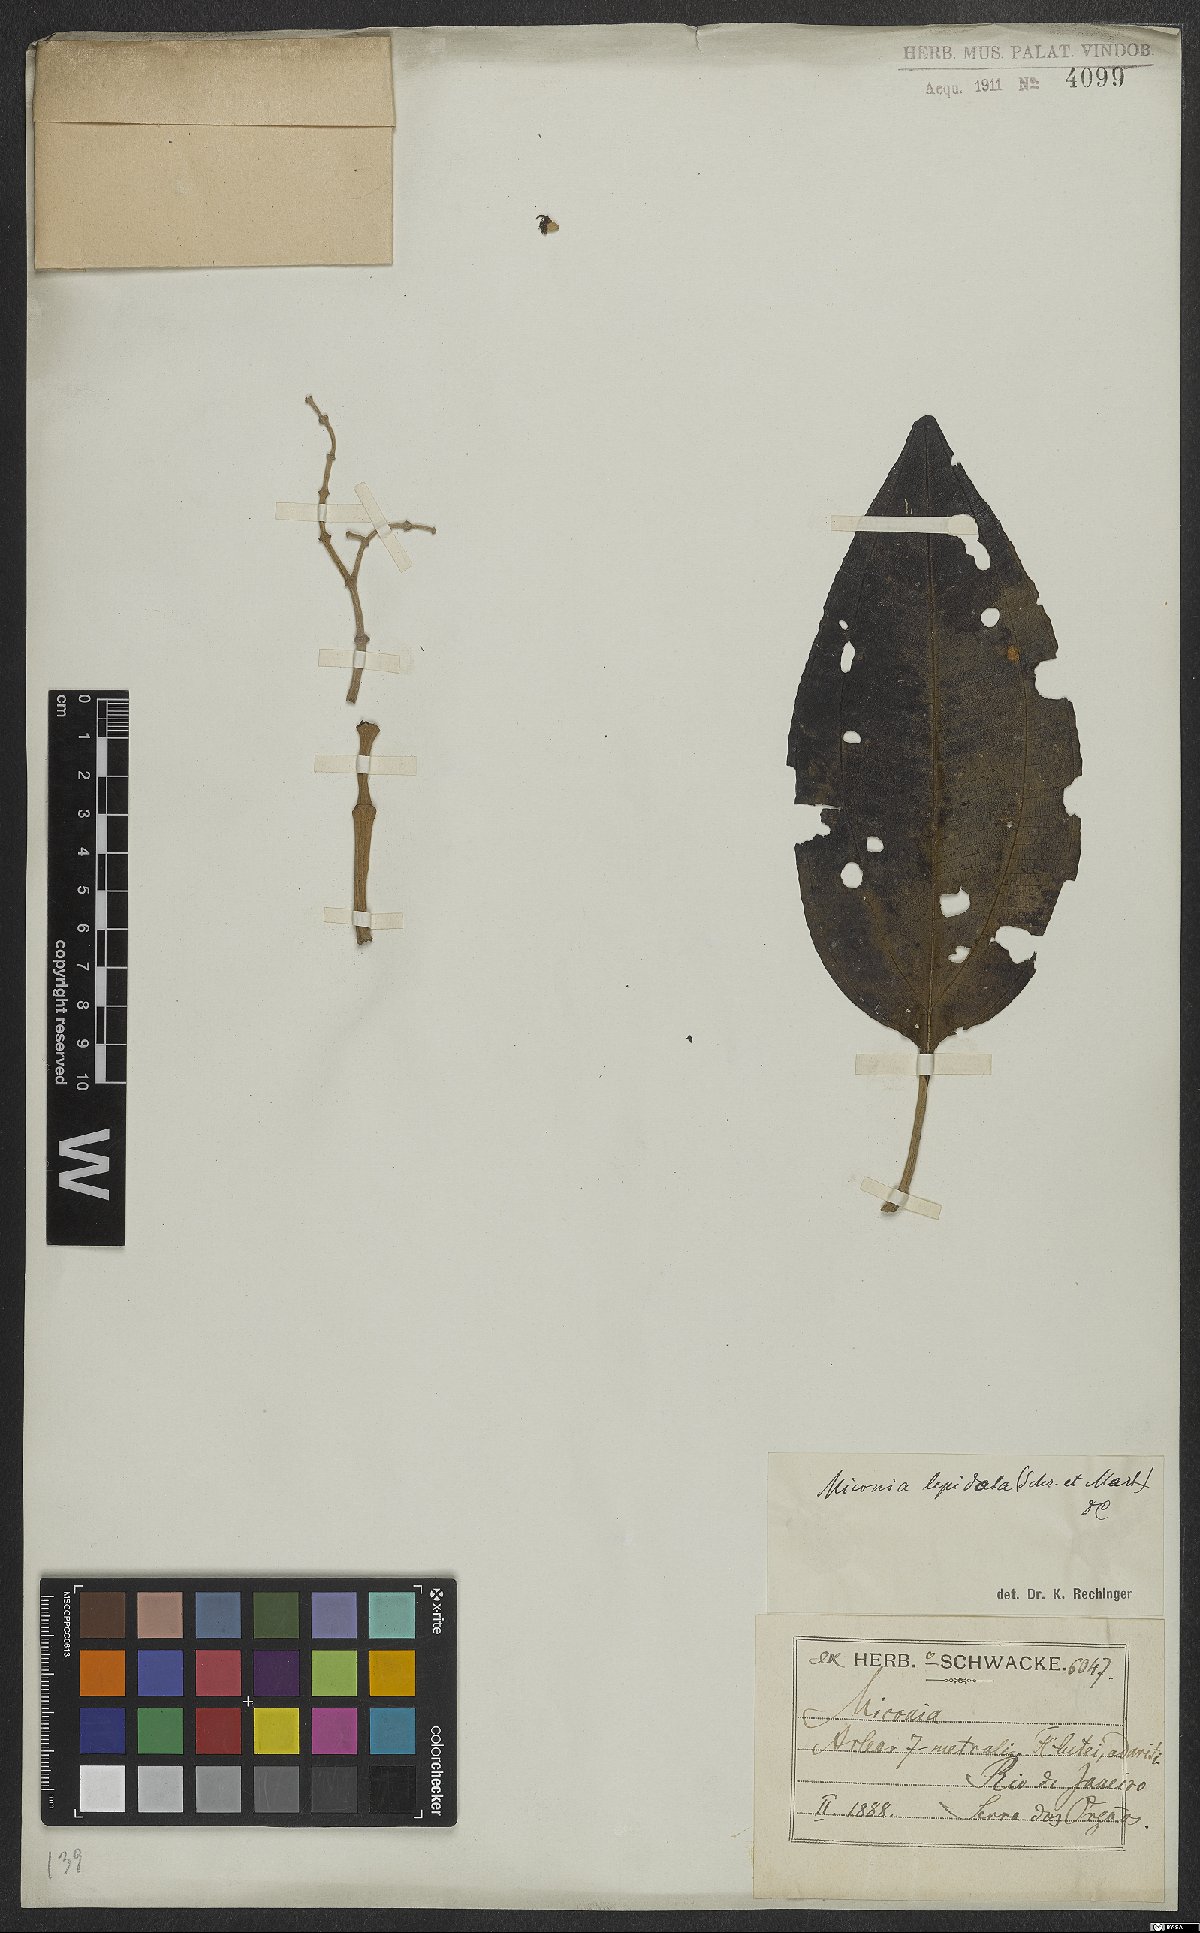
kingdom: Plantae
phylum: Tracheophyta
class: Magnoliopsida
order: Myrtales
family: Melastomataceae
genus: Miconia
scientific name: Miconia lepidota
